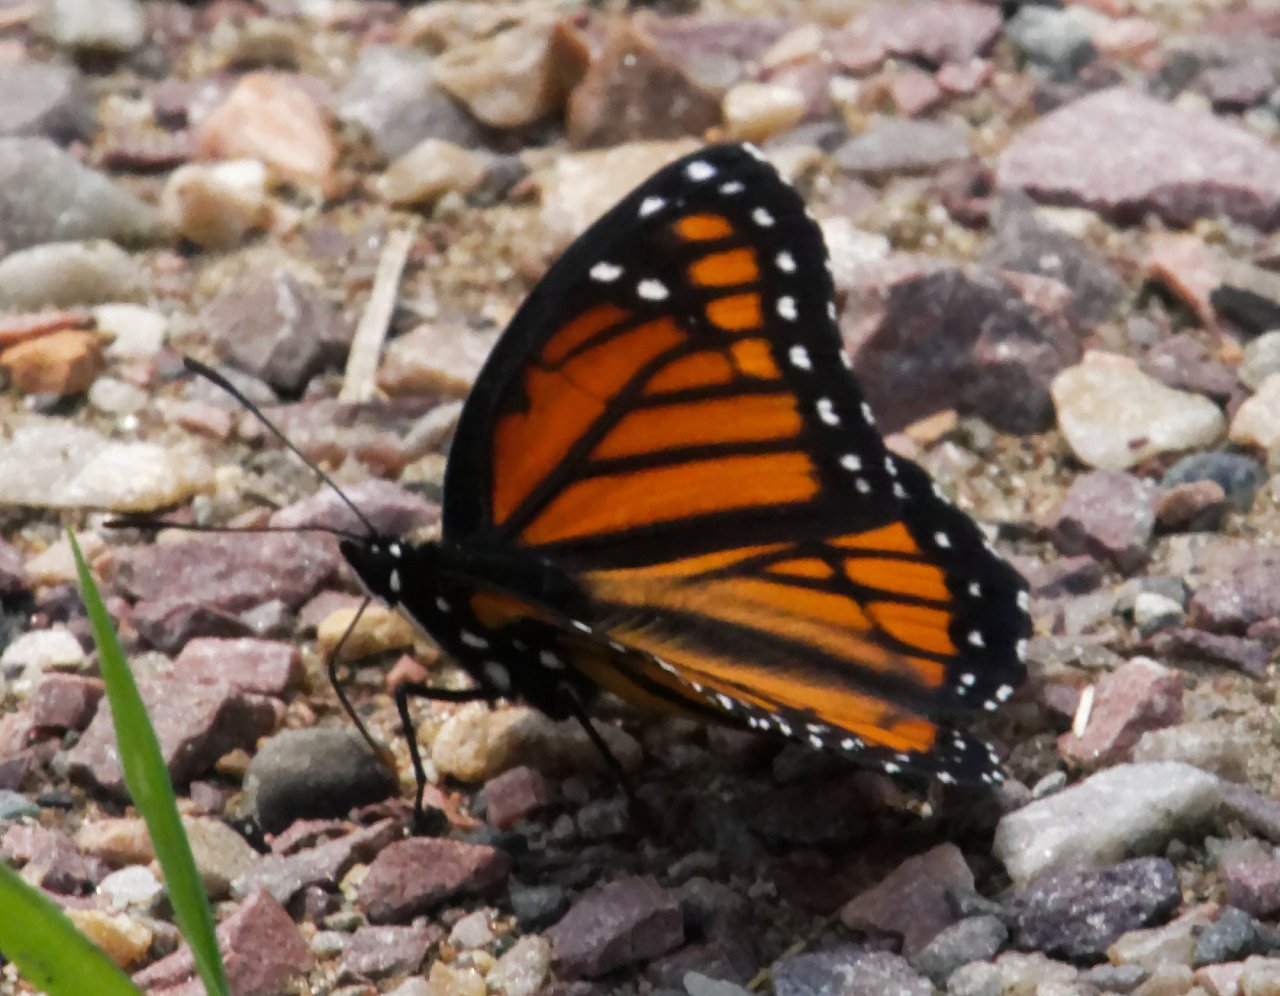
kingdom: Animalia
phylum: Arthropoda
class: Insecta
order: Lepidoptera
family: Nymphalidae
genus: Limenitis
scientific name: Limenitis archippus
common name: Viceroy
